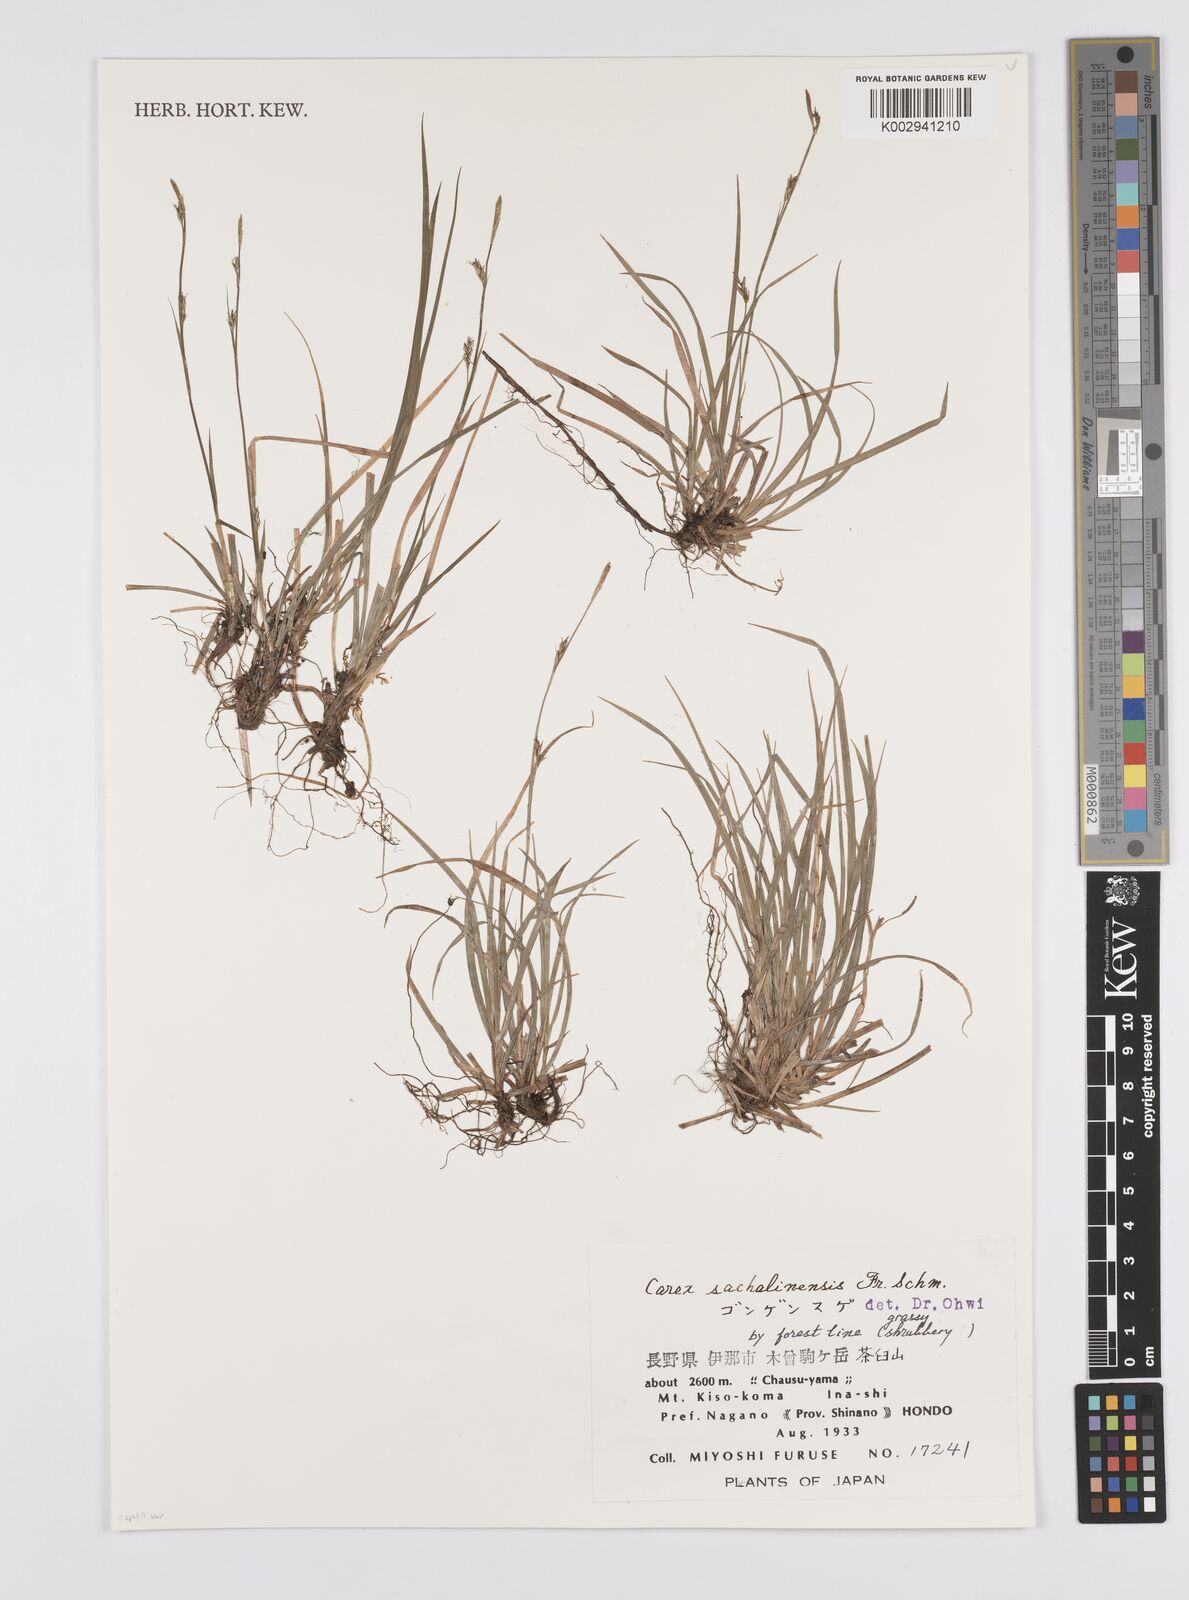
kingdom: Plantae
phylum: Tracheophyta
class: Liliopsida
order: Poales
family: Cyperaceae
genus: Carex
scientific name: Carex pisiformis
